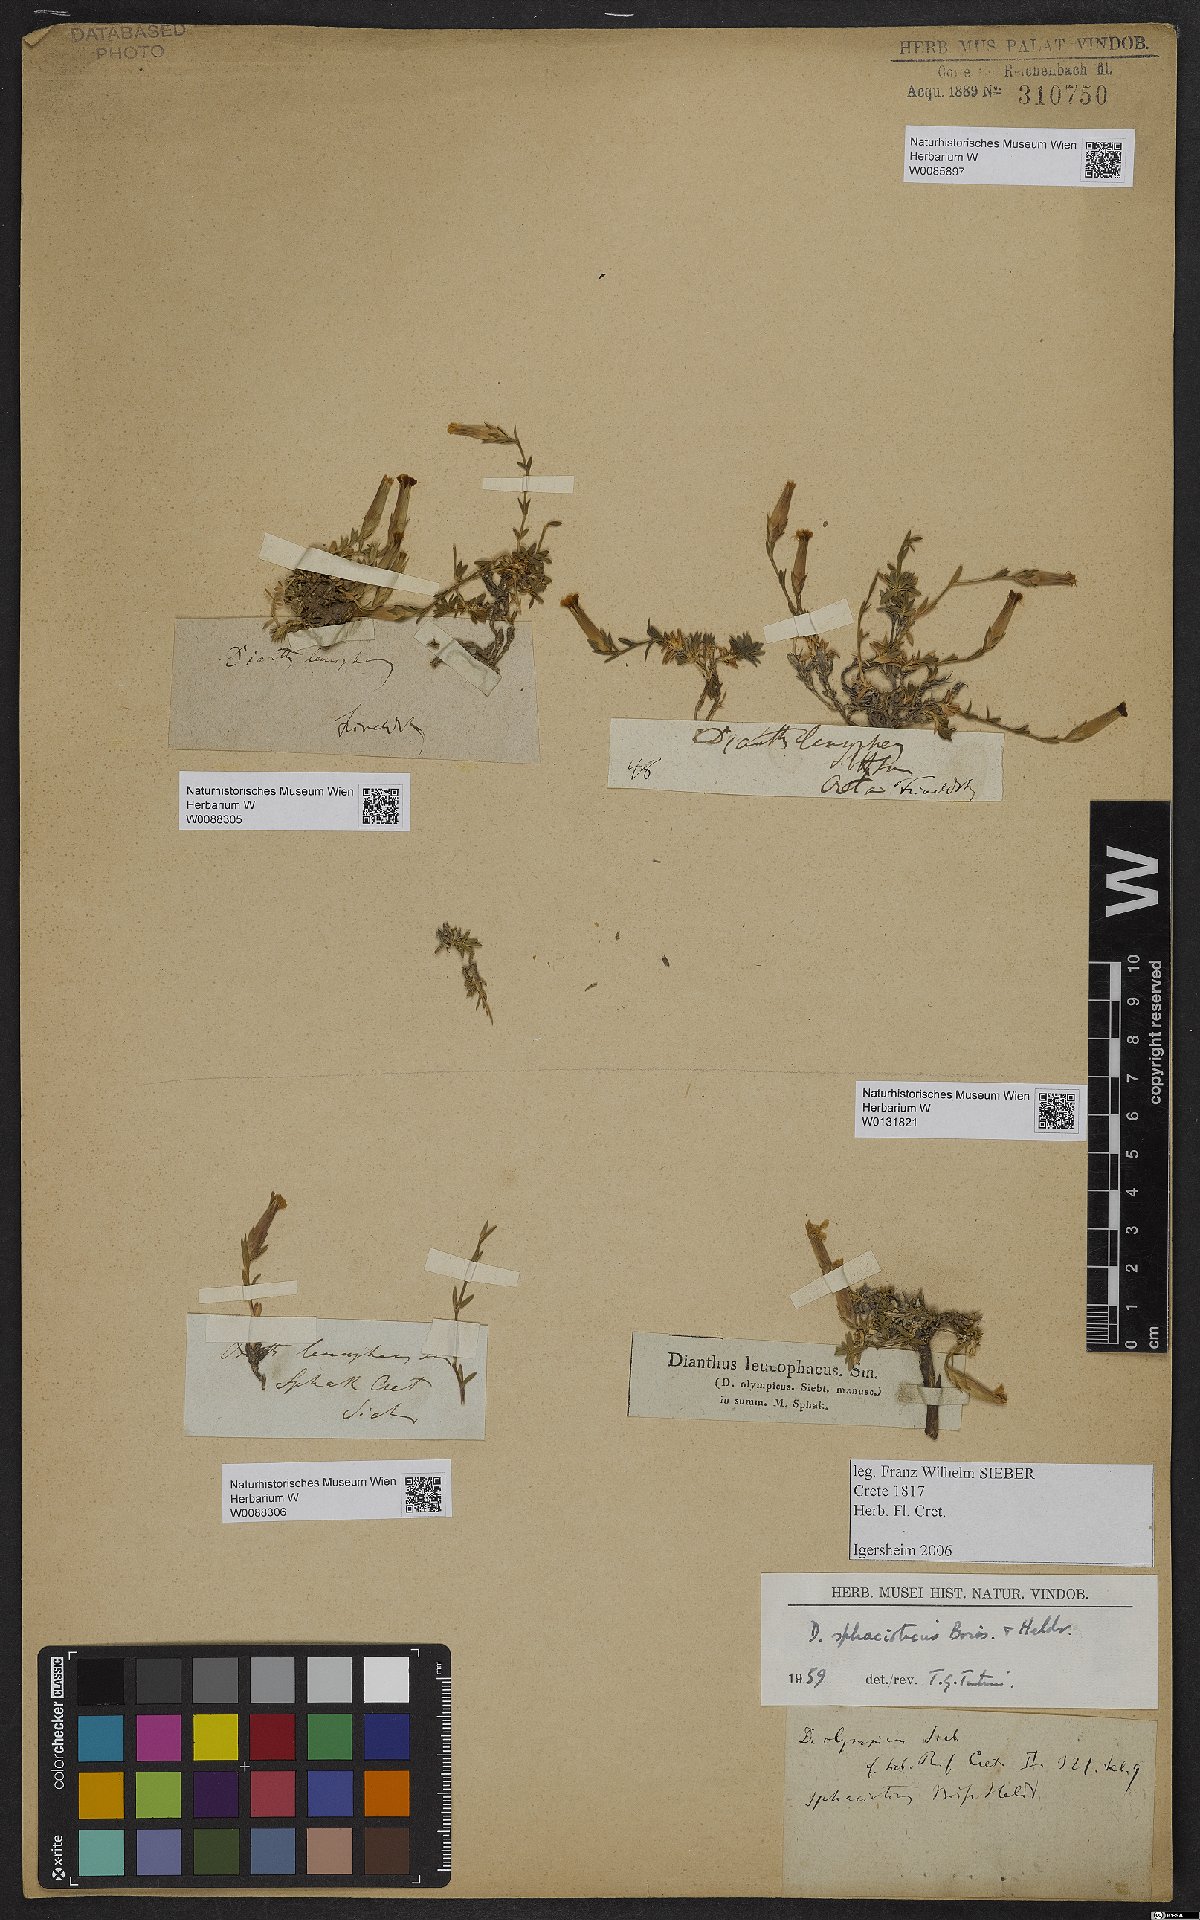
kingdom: Plantae
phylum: Tracheophyta
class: Magnoliopsida
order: Caryophyllales
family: Caryophyllaceae
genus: Dianthus
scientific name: Dianthus sphacioticus
